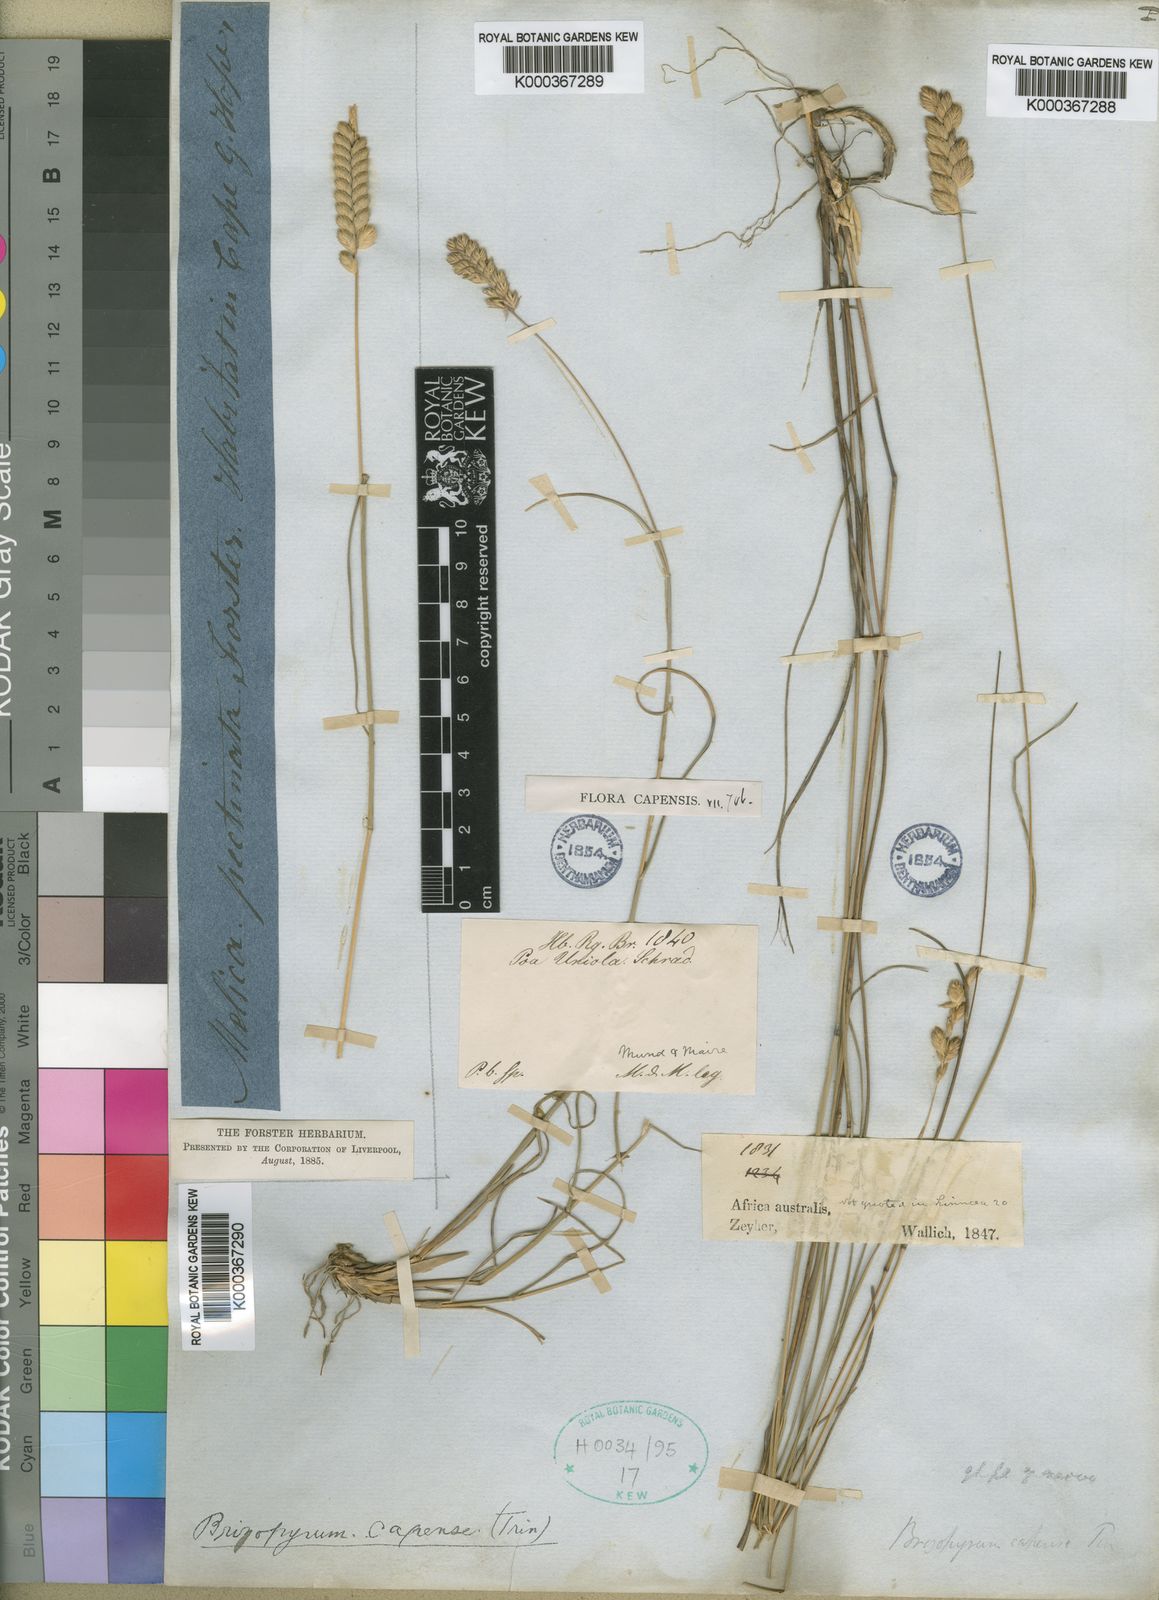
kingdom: Plantae
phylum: Tracheophyta
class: Liliopsida
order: Poales
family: Poaceae
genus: Tribolium
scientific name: Tribolium uniolae
